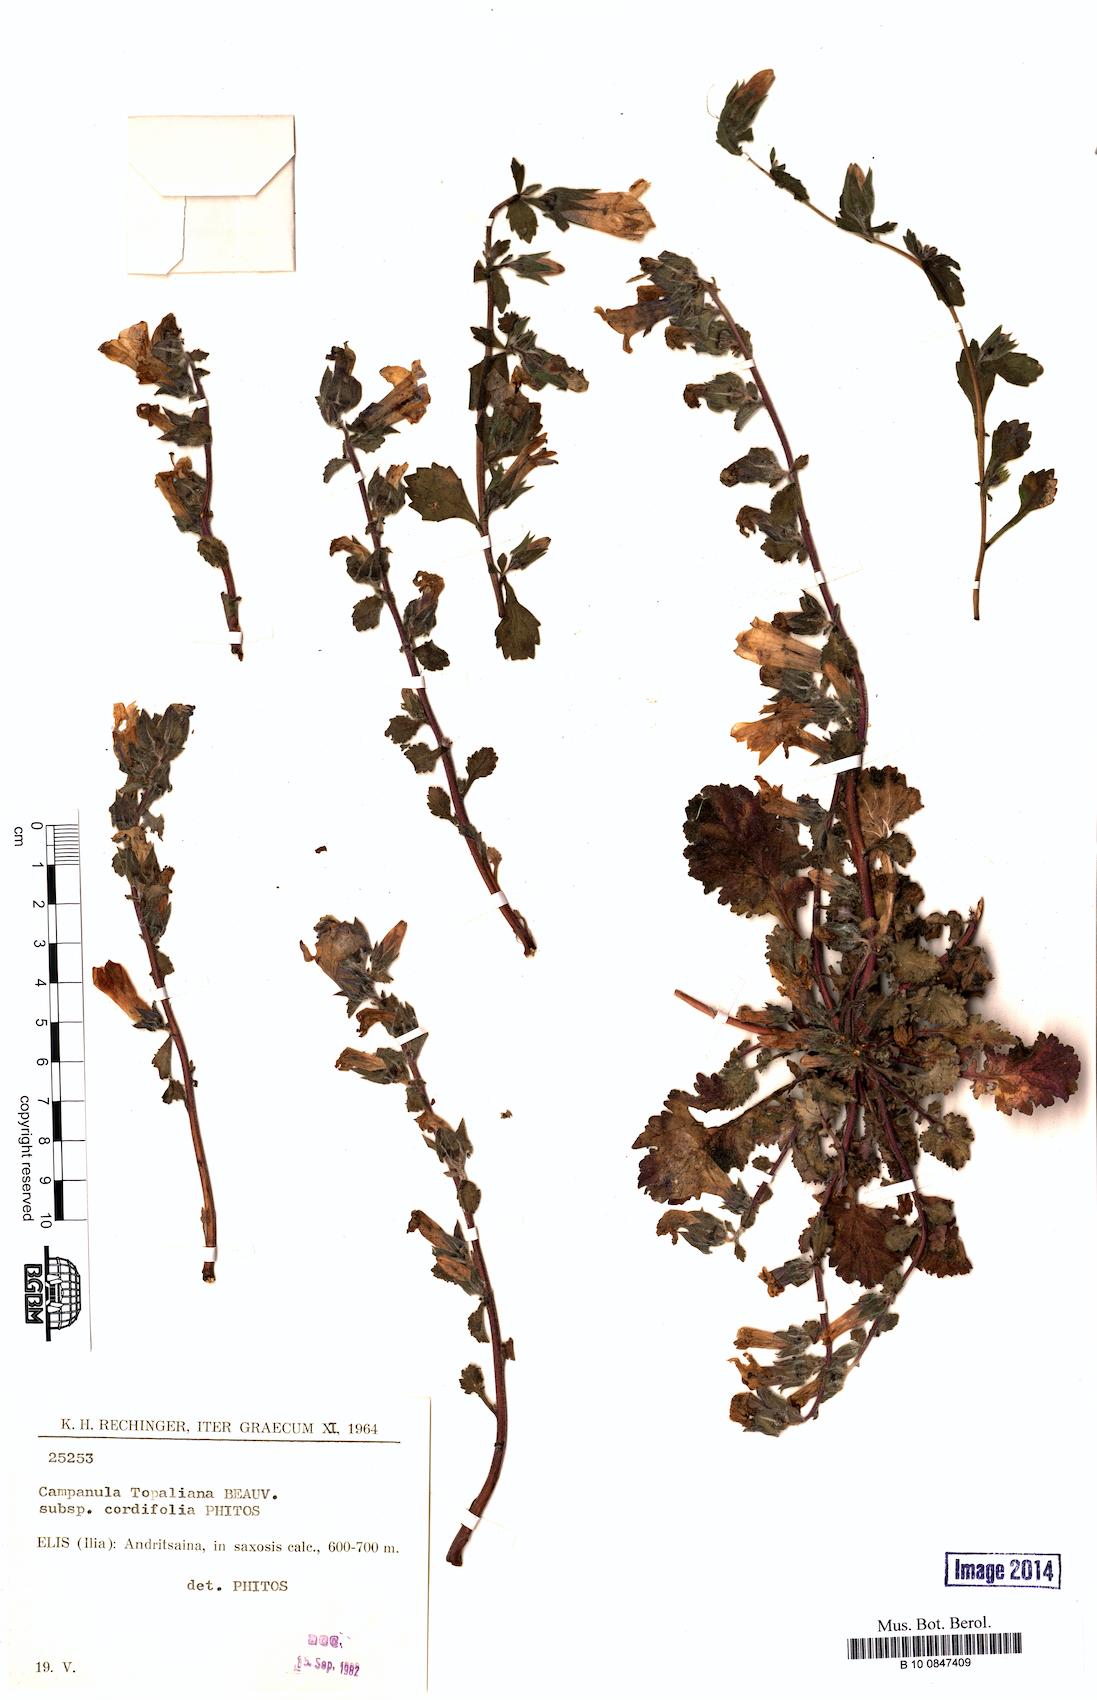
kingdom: Plantae
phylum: Tracheophyta
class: Magnoliopsida
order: Asterales
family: Campanulaceae
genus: Campanula
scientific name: Campanula topaliana
